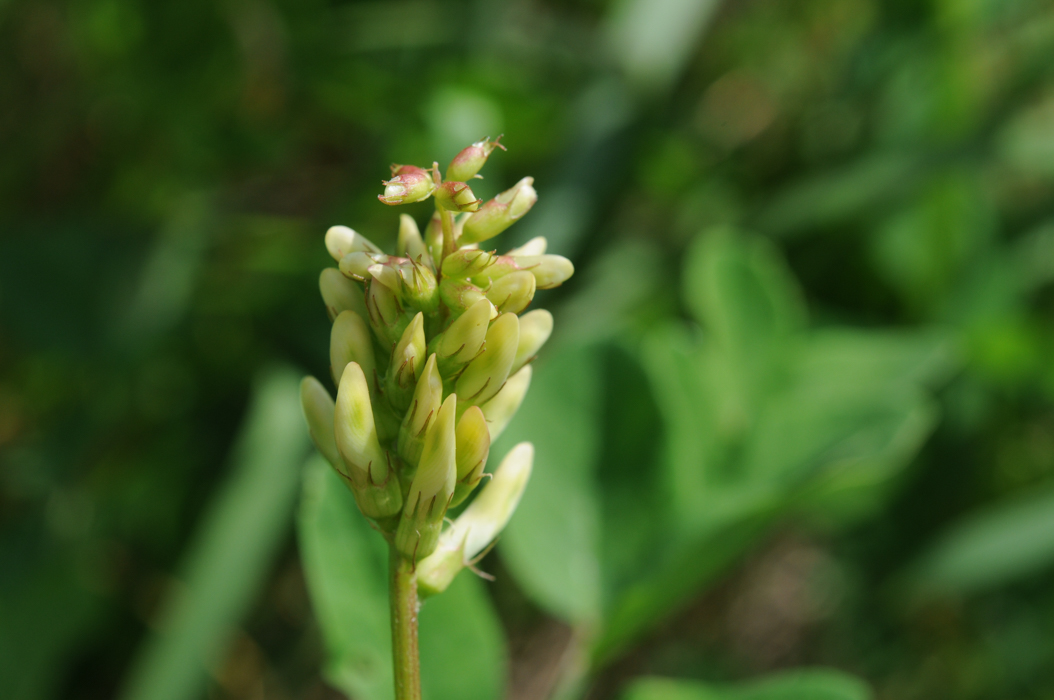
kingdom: Plantae
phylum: Tracheophyta
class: Magnoliopsida
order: Fabales
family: Fabaceae
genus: Astragalus
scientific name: Astragalus cicer
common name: Chick-pea milk-vetch
